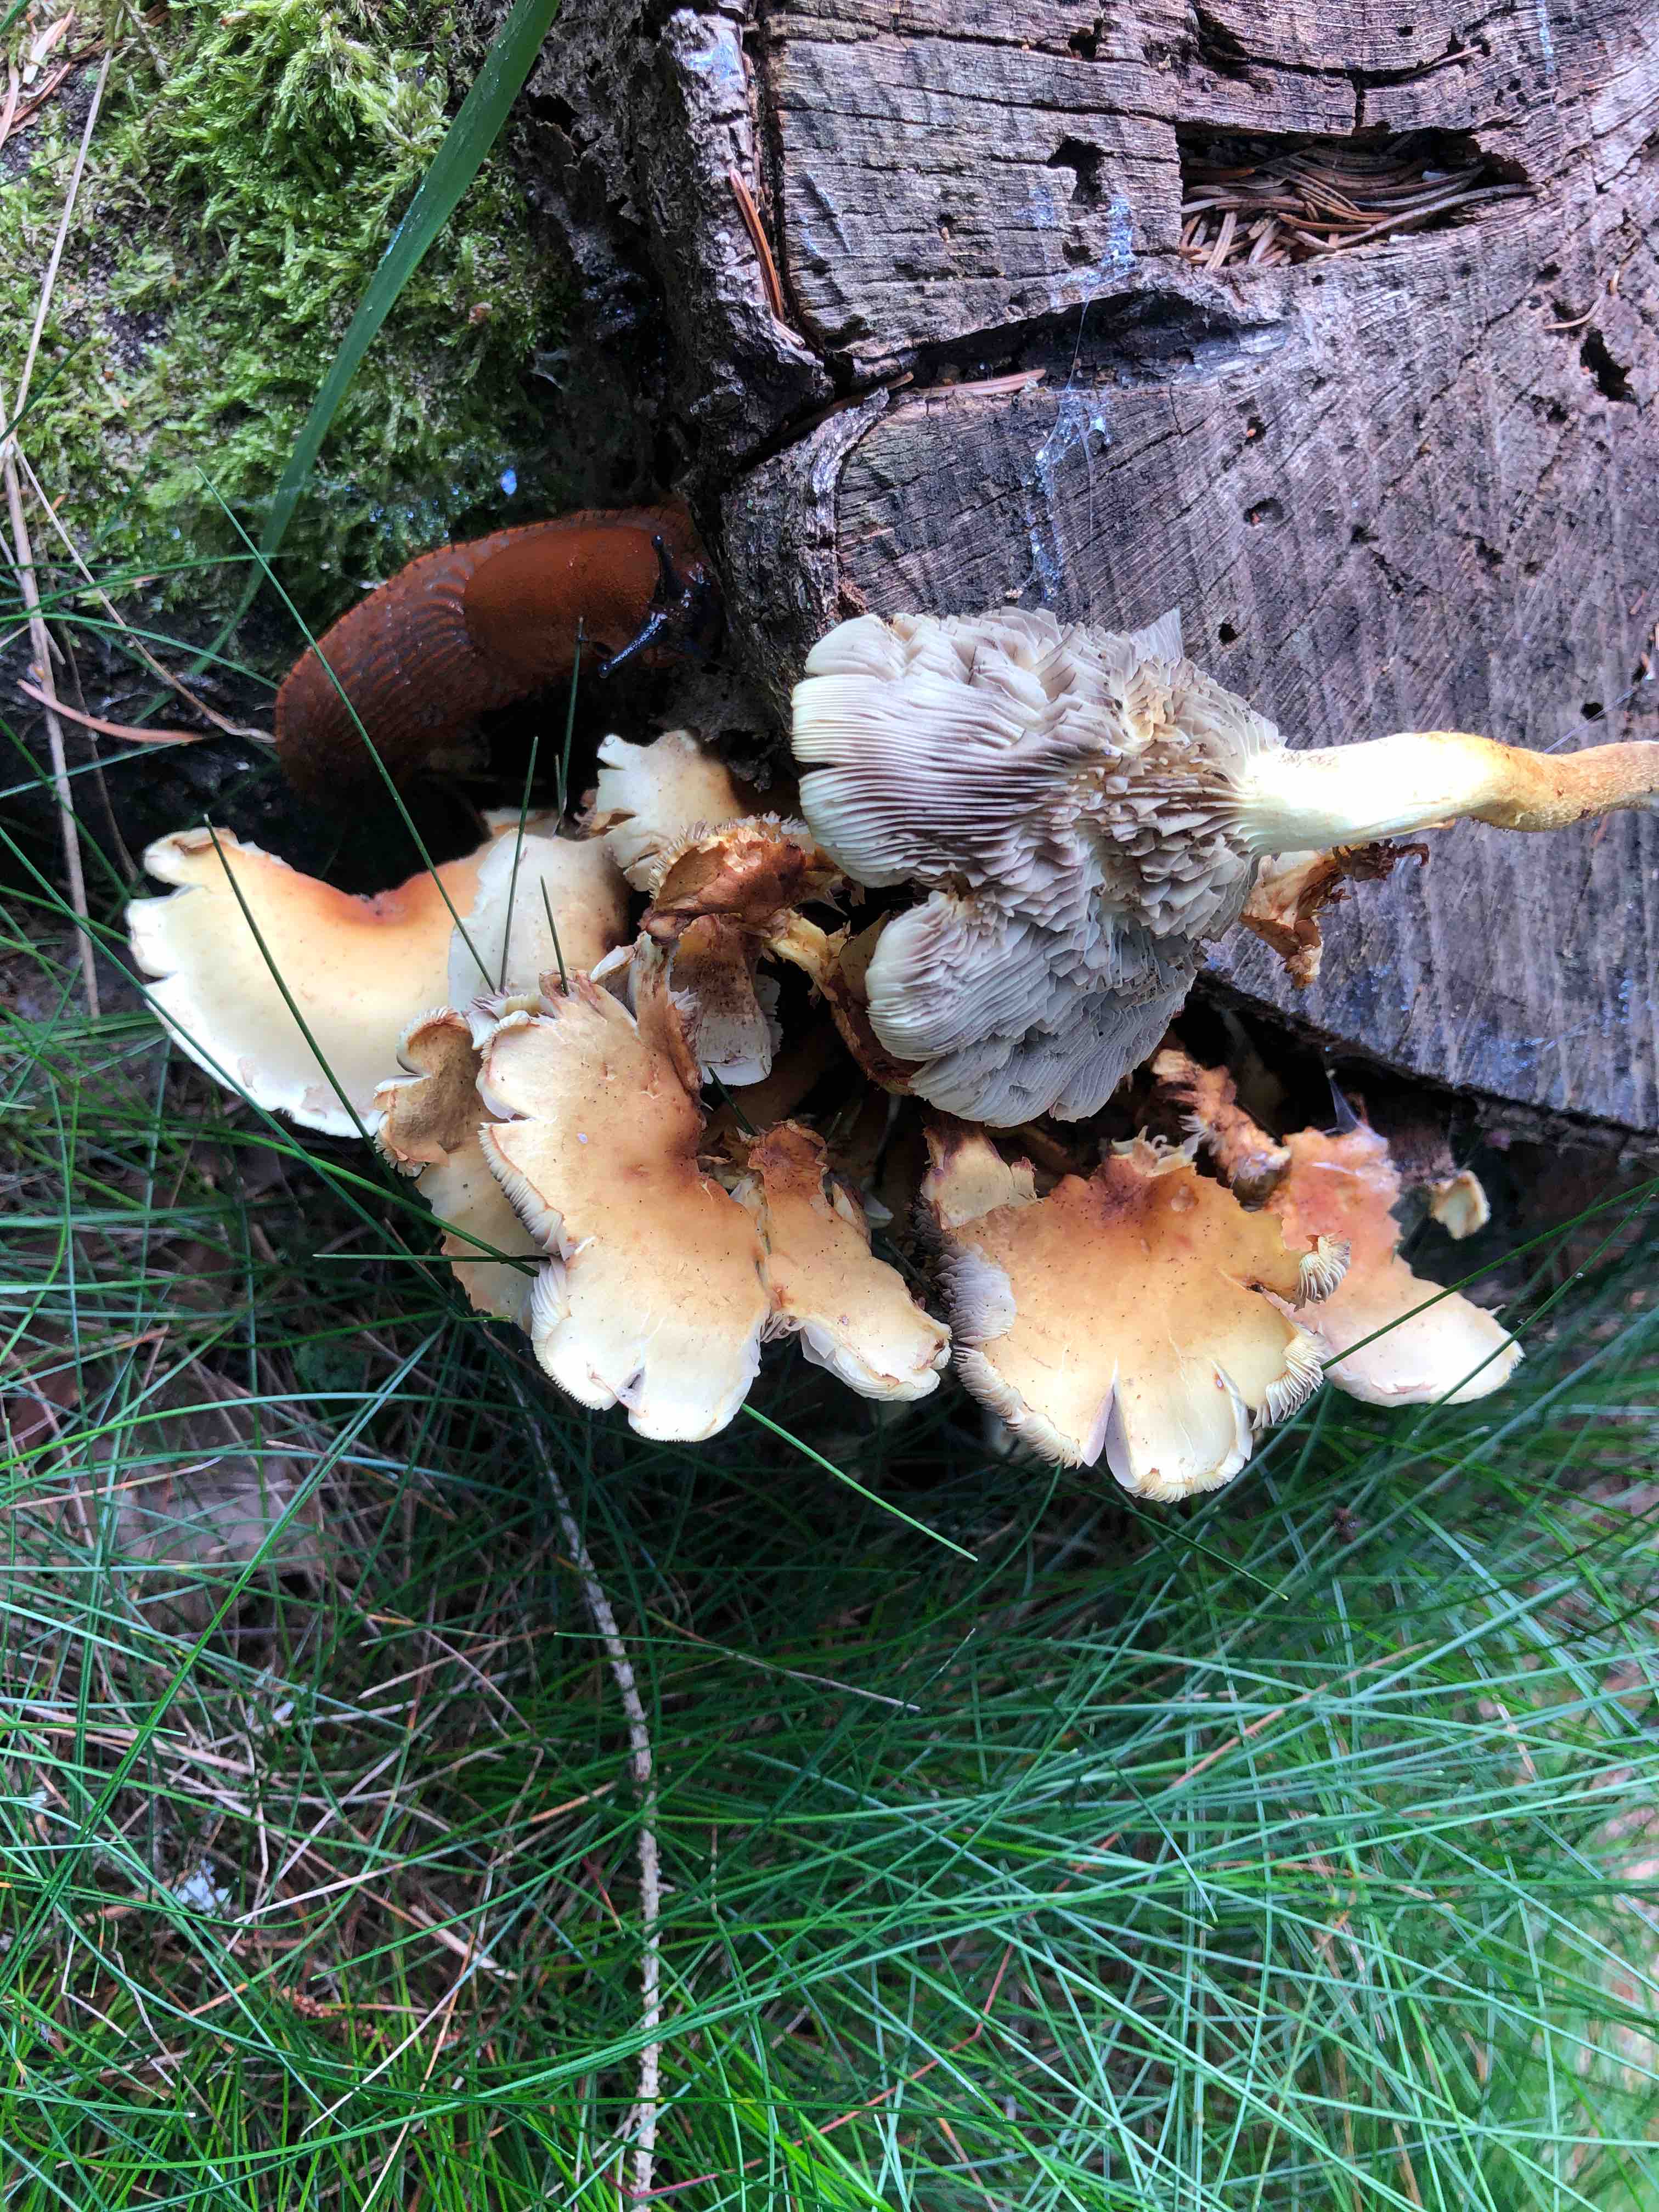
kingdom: Fungi
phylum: Basidiomycota
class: Agaricomycetes
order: Agaricales
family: Strophariaceae
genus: Hypholoma
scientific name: Hypholoma fasciculare
